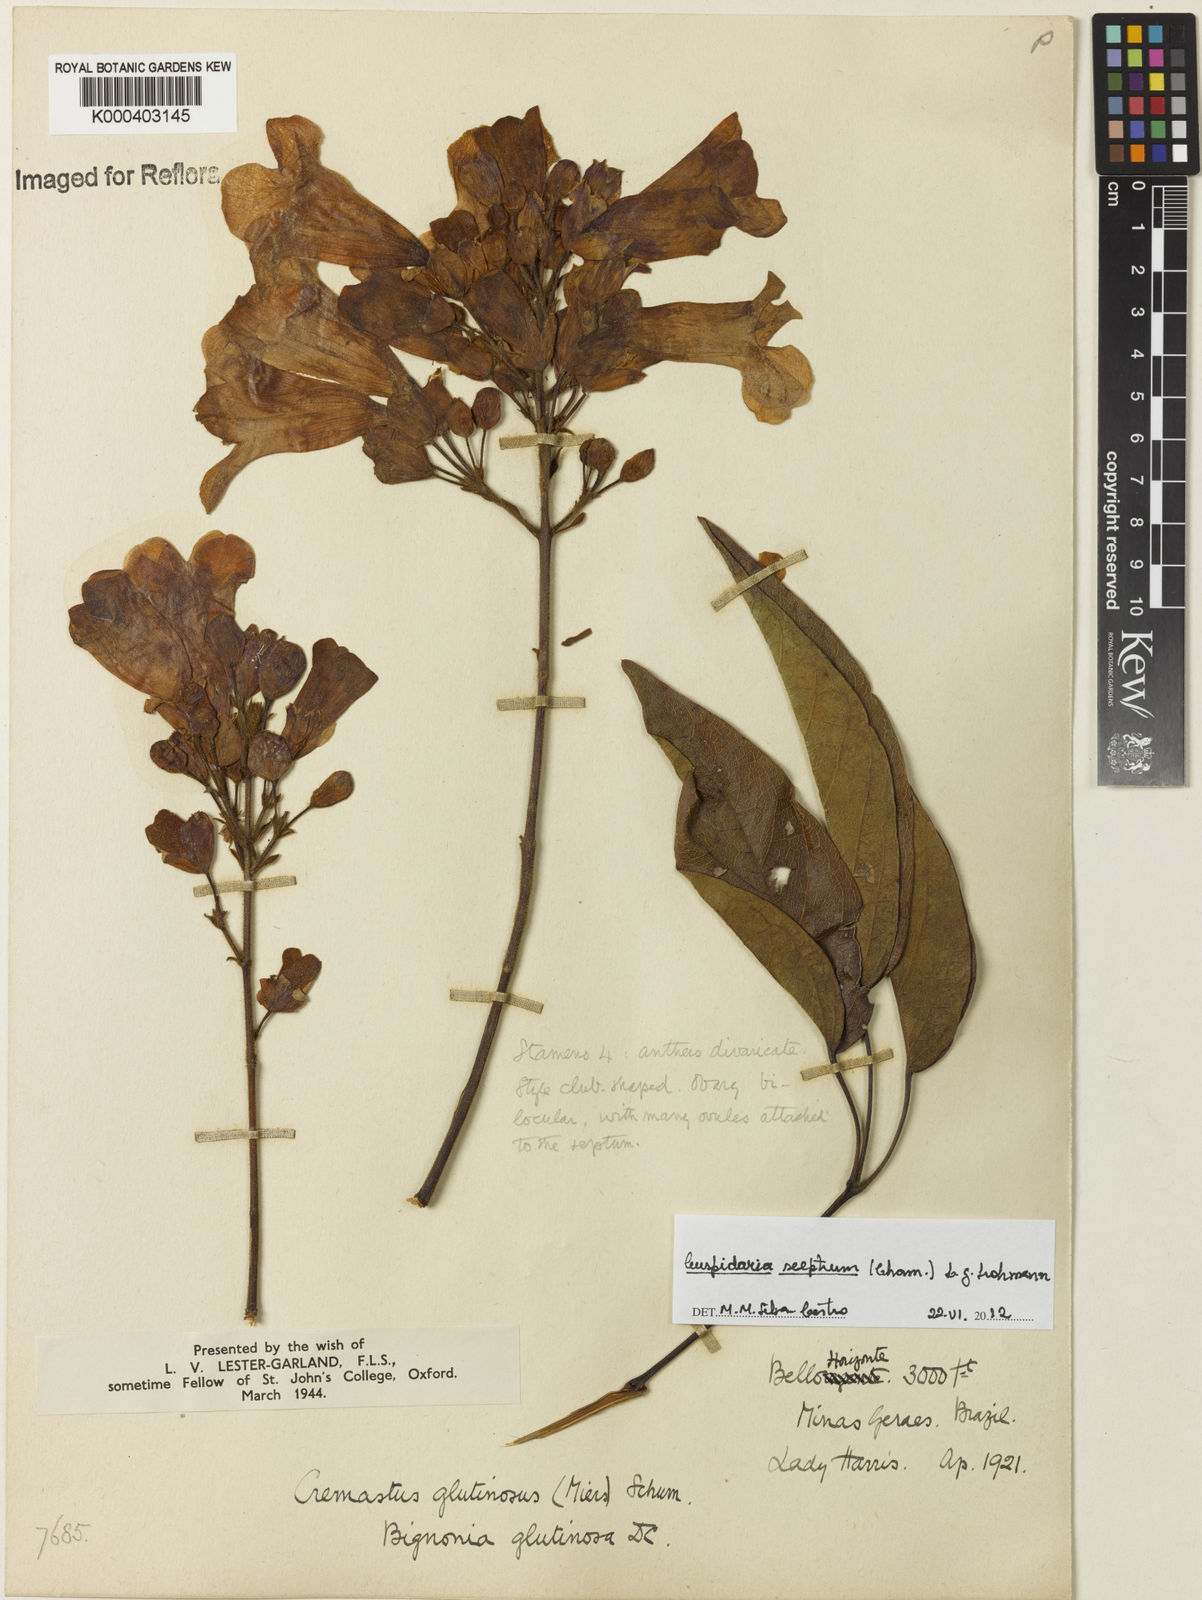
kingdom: Plantae
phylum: Tracheophyta
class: Magnoliopsida
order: Lamiales
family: Bignoniaceae
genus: Cuspidaria
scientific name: Cuspidaria sceptrum
